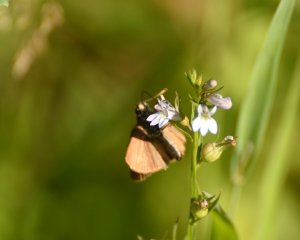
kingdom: Animalia
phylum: Arthropoda
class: Insecta
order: Lepidoptera
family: Hesperiidae
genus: Euphyes
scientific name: Euphyes vestris
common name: Dun Skipper
